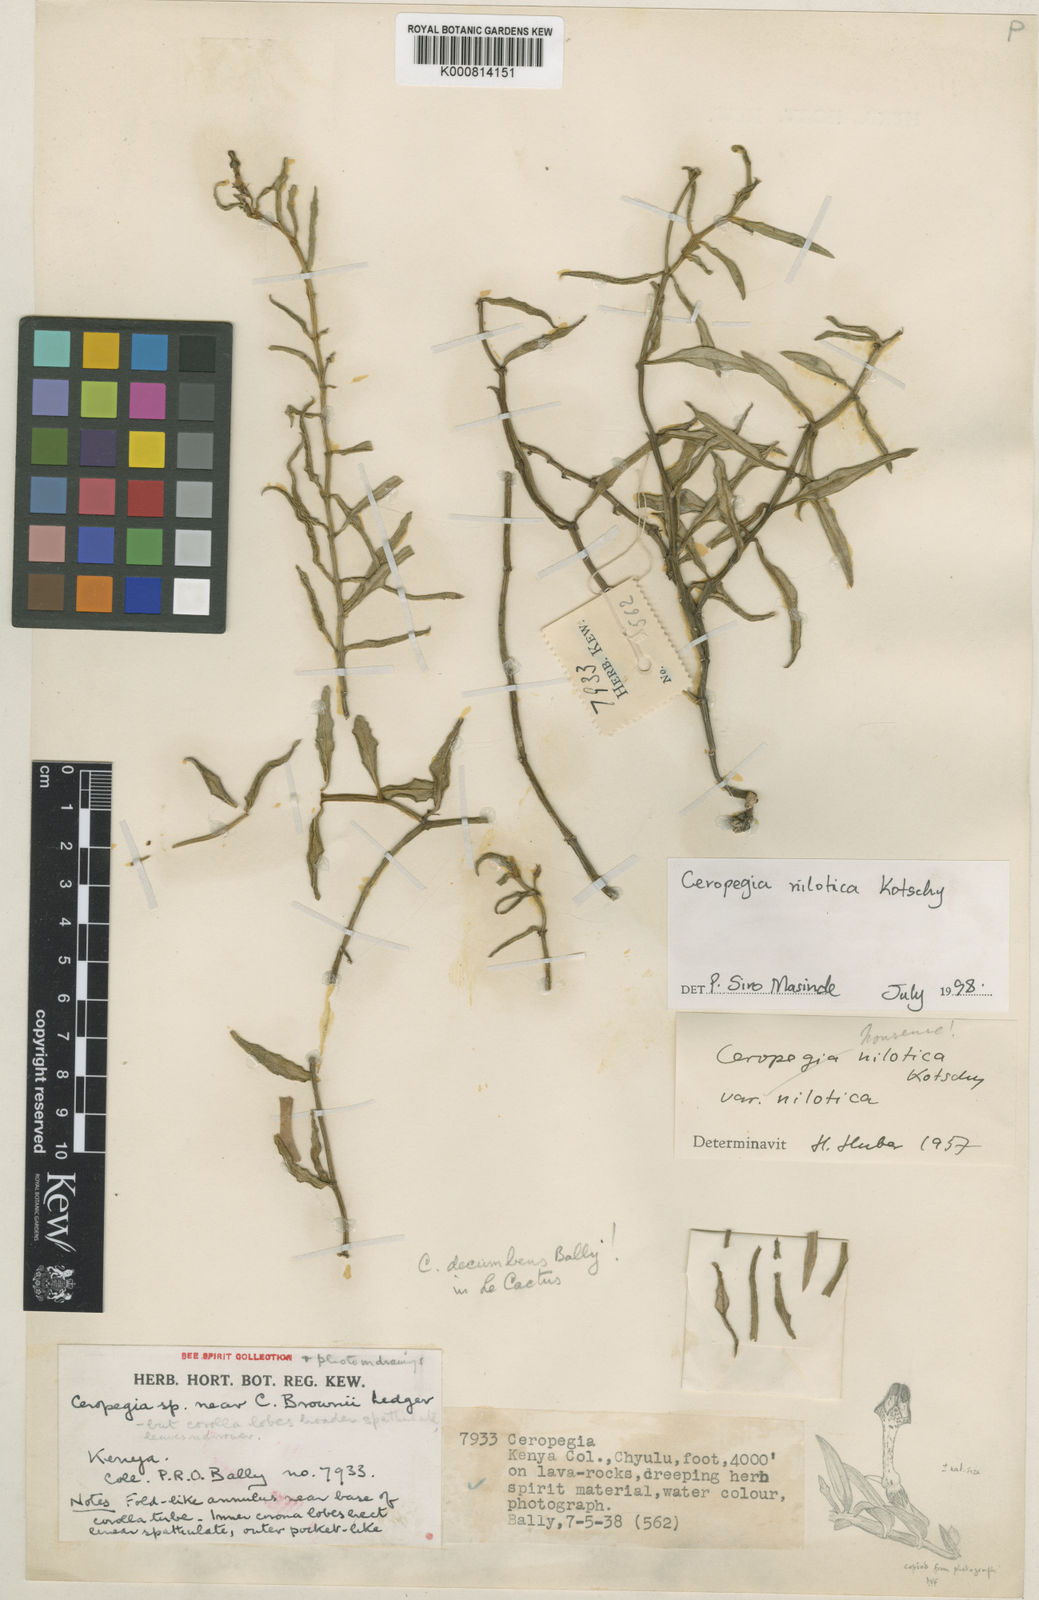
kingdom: Plantae
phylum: Tracheophyta
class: Magnoliopsida
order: Gentianales
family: Apocynaceae
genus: Ceropegia
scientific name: Ceropegia nilotica
